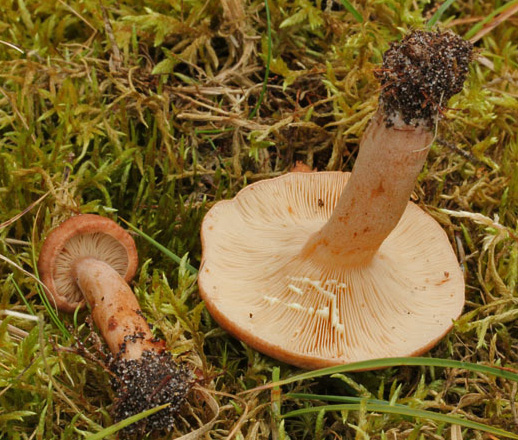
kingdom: Fungi
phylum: Basidiomycota
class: Agaricomycetes
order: Russulales
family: Russulaceae
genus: Lactarius
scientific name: Lactarius quietus
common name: ege-mælkehat
